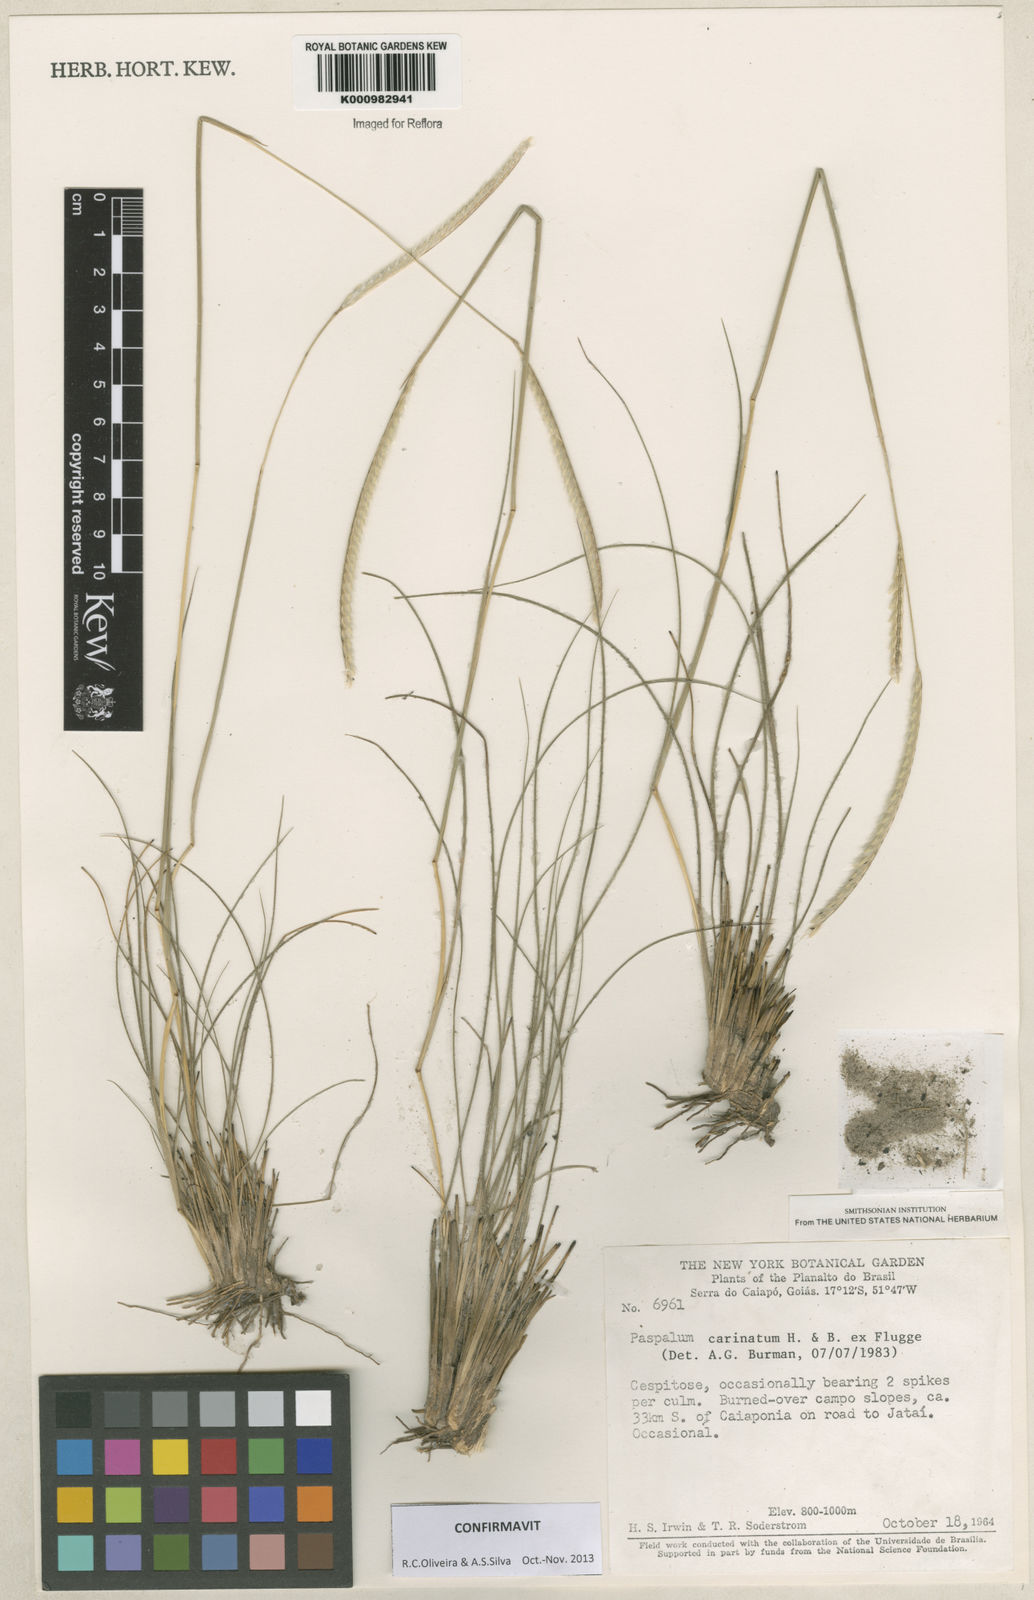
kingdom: Plantae
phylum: Tracheophyta
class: Liliopsida
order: Poales
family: Poaceae
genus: Paspalum
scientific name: Paspalum
